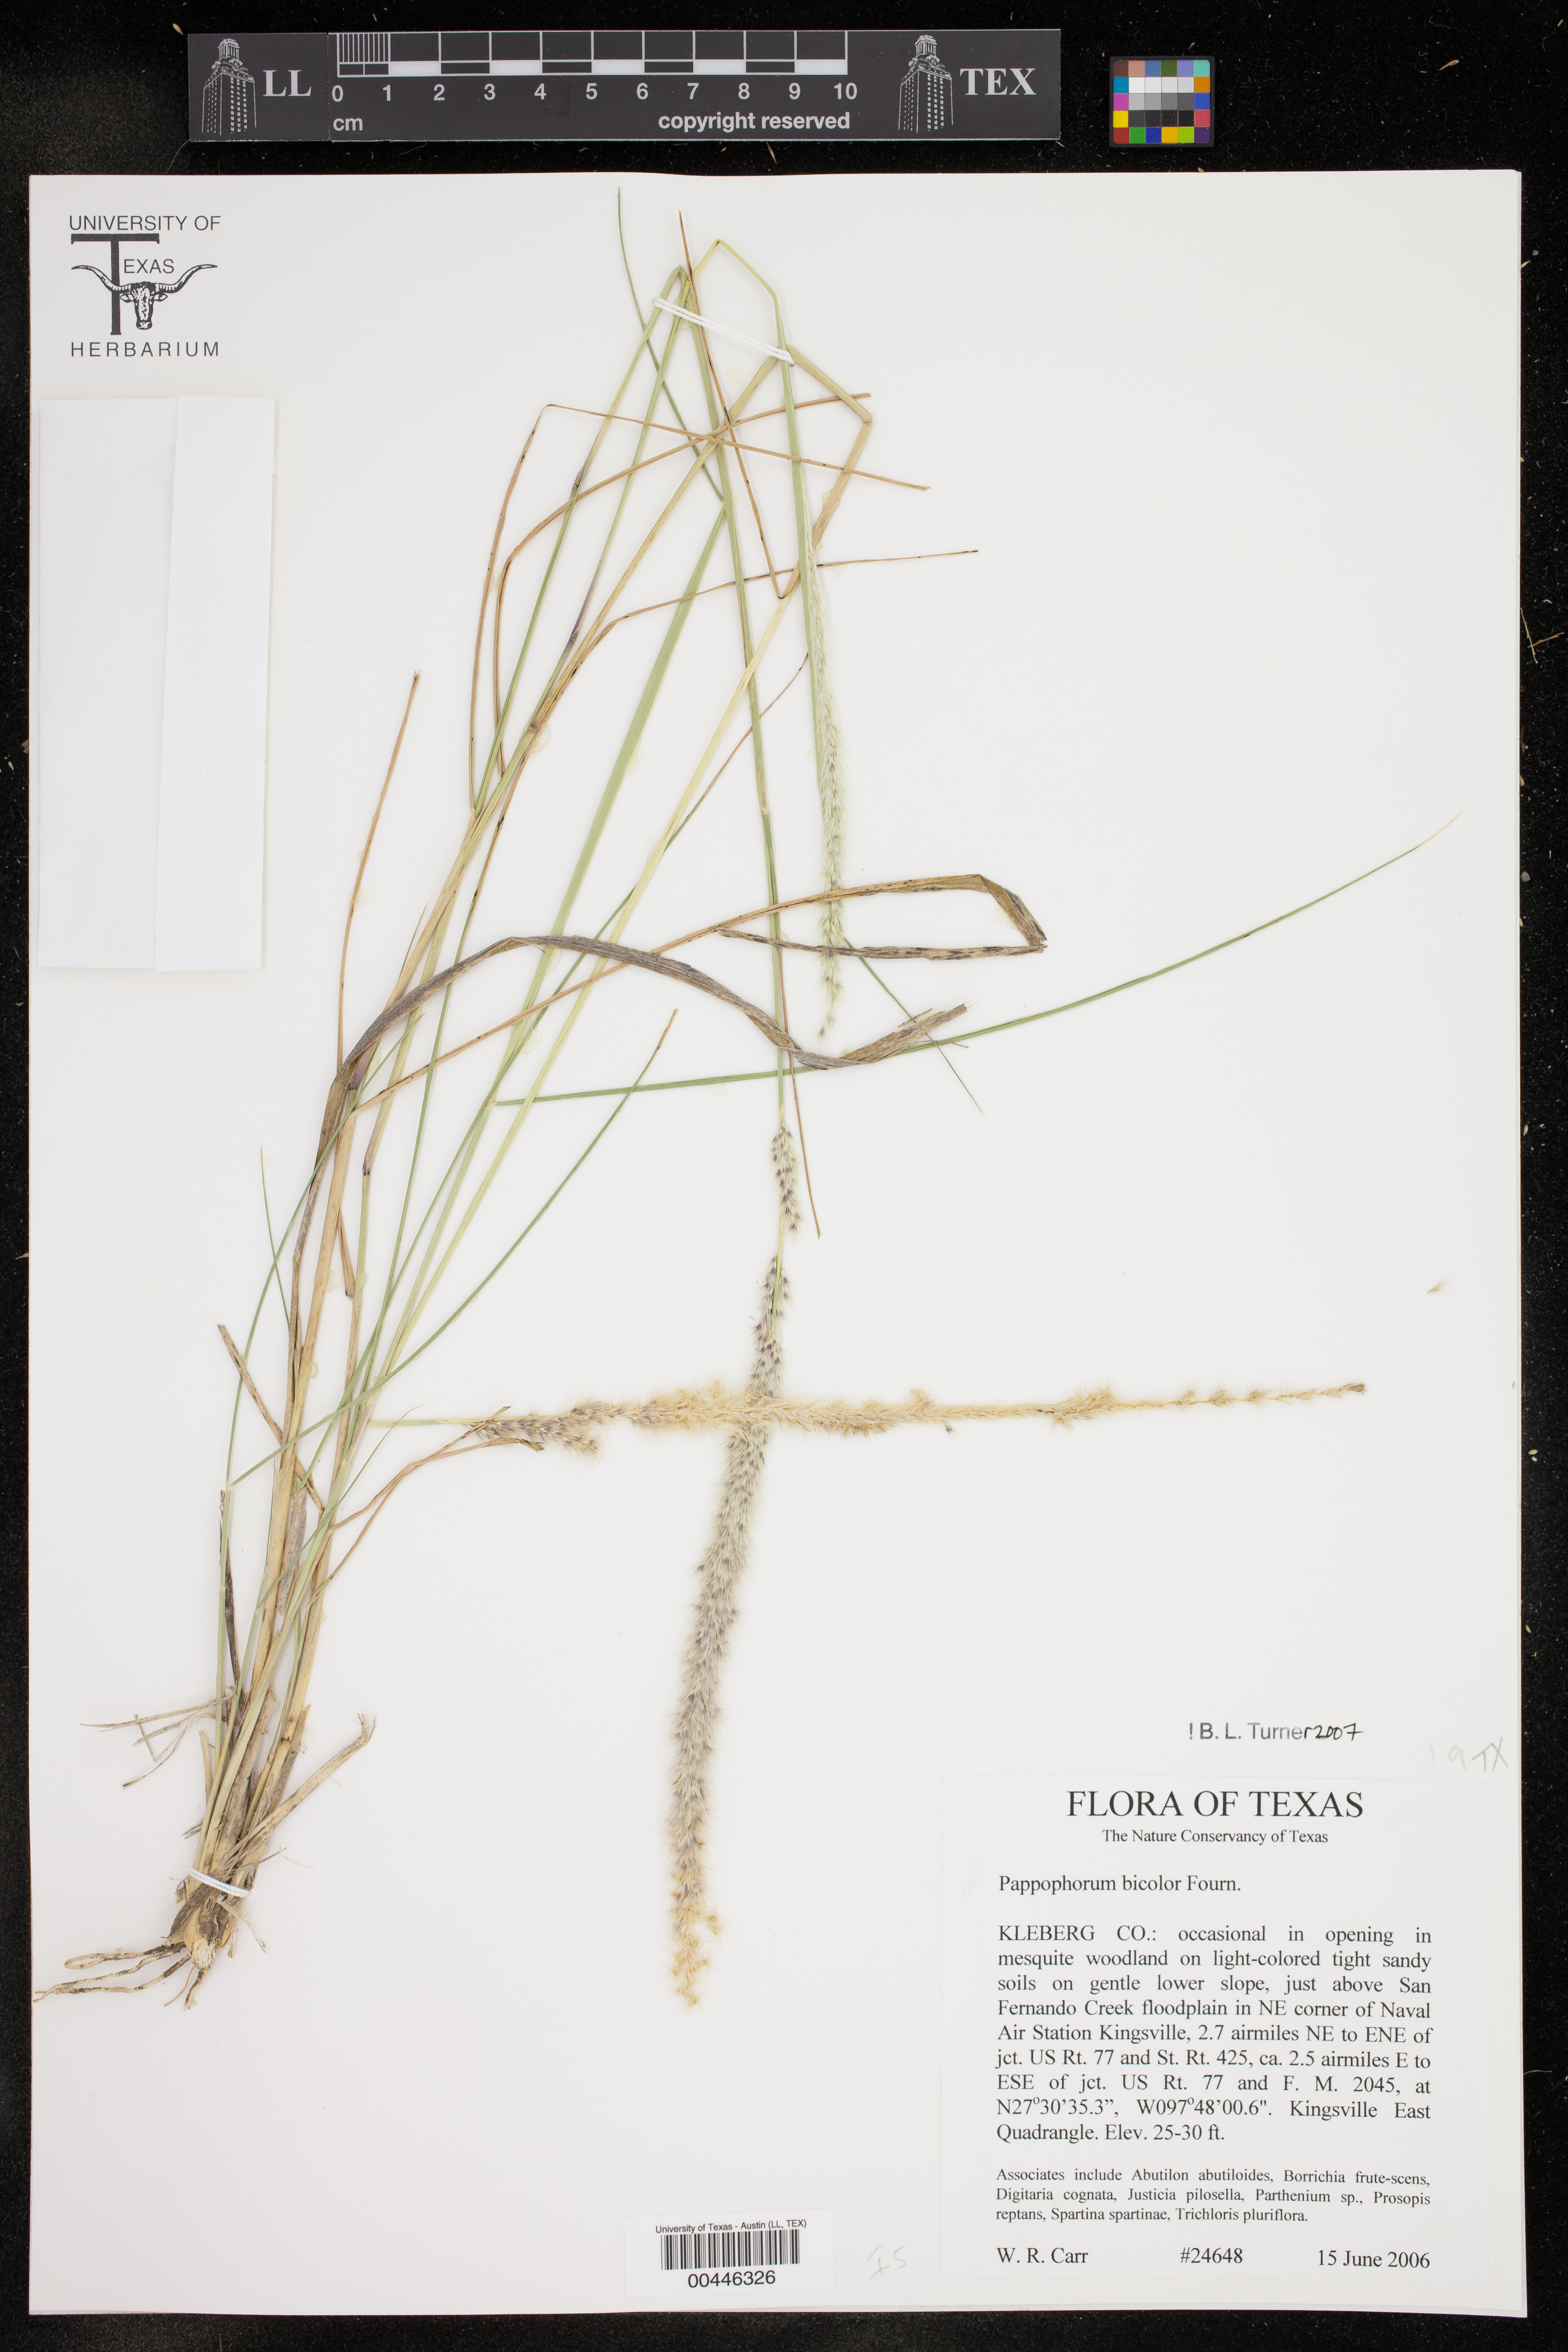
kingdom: Plantae
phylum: Tracheophyta
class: Liliopsida
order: Poales
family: Poaceae
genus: Pappophorum
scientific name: Pappophorum bicolor
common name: Pink pappus grass
